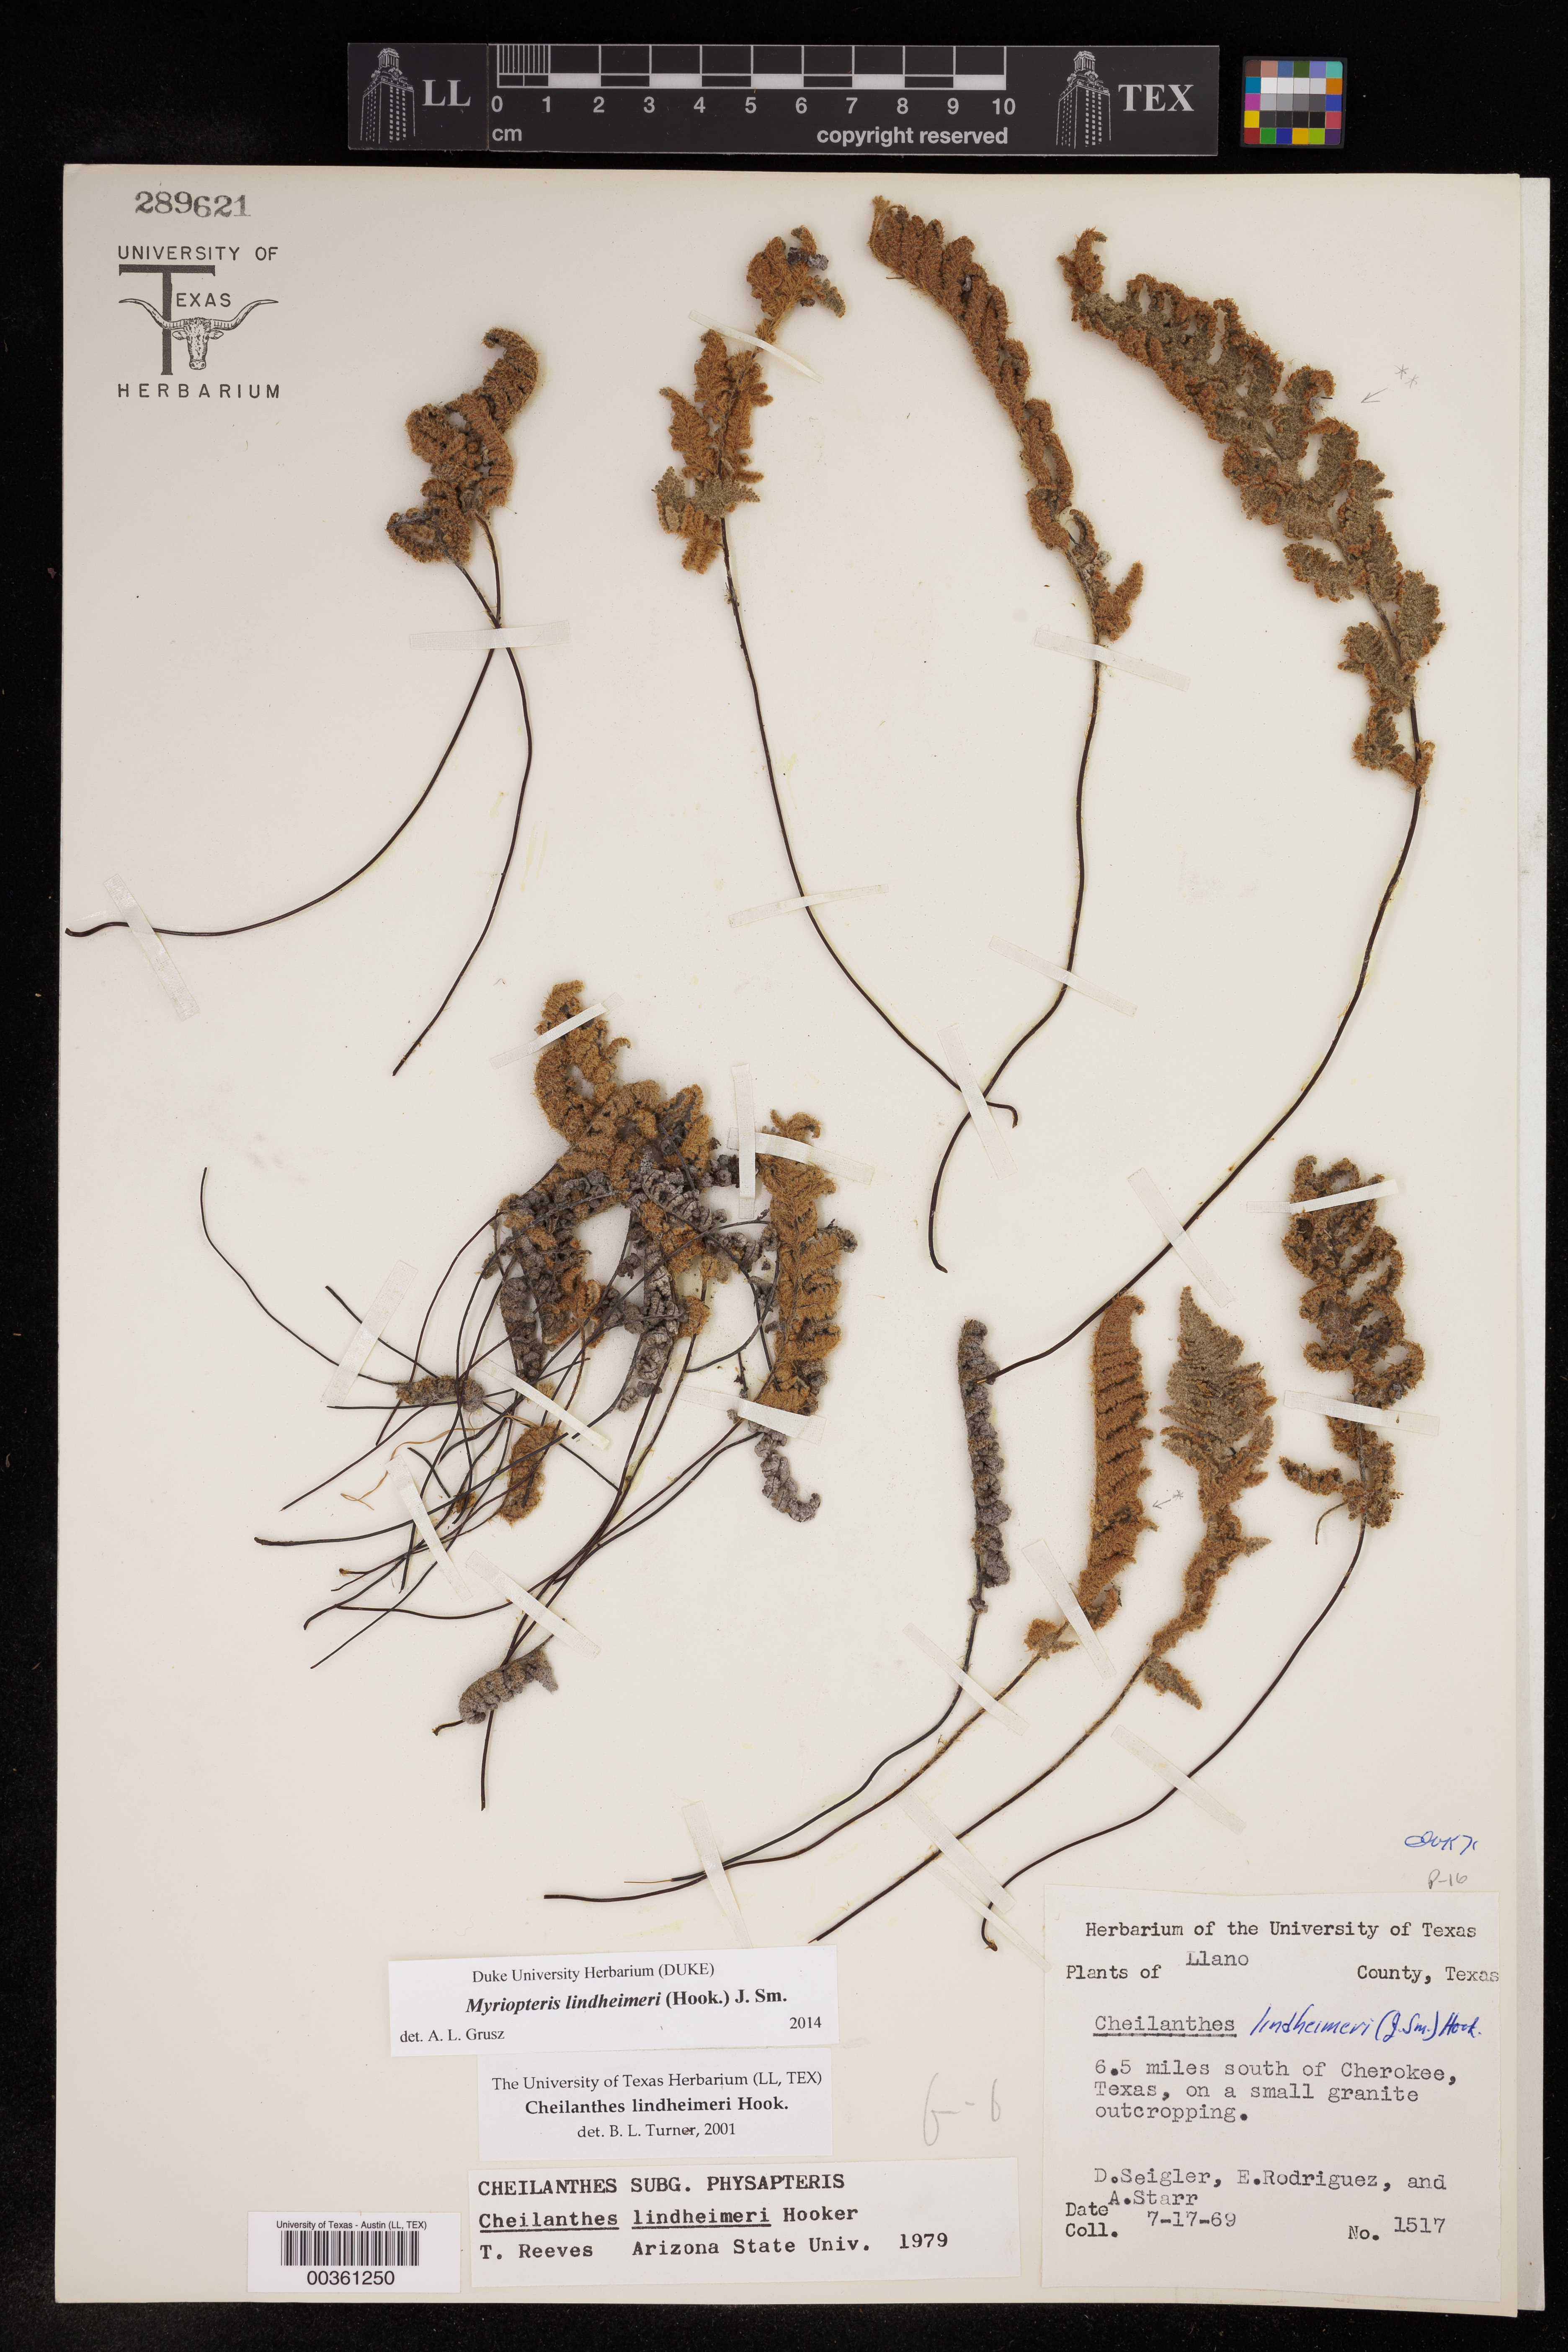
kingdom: Plantae
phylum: Tracheophyta
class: Polypodiopsida
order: Polypodiales
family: Pteridaceae
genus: Myriopteris
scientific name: Myriopteris lindheimeri
